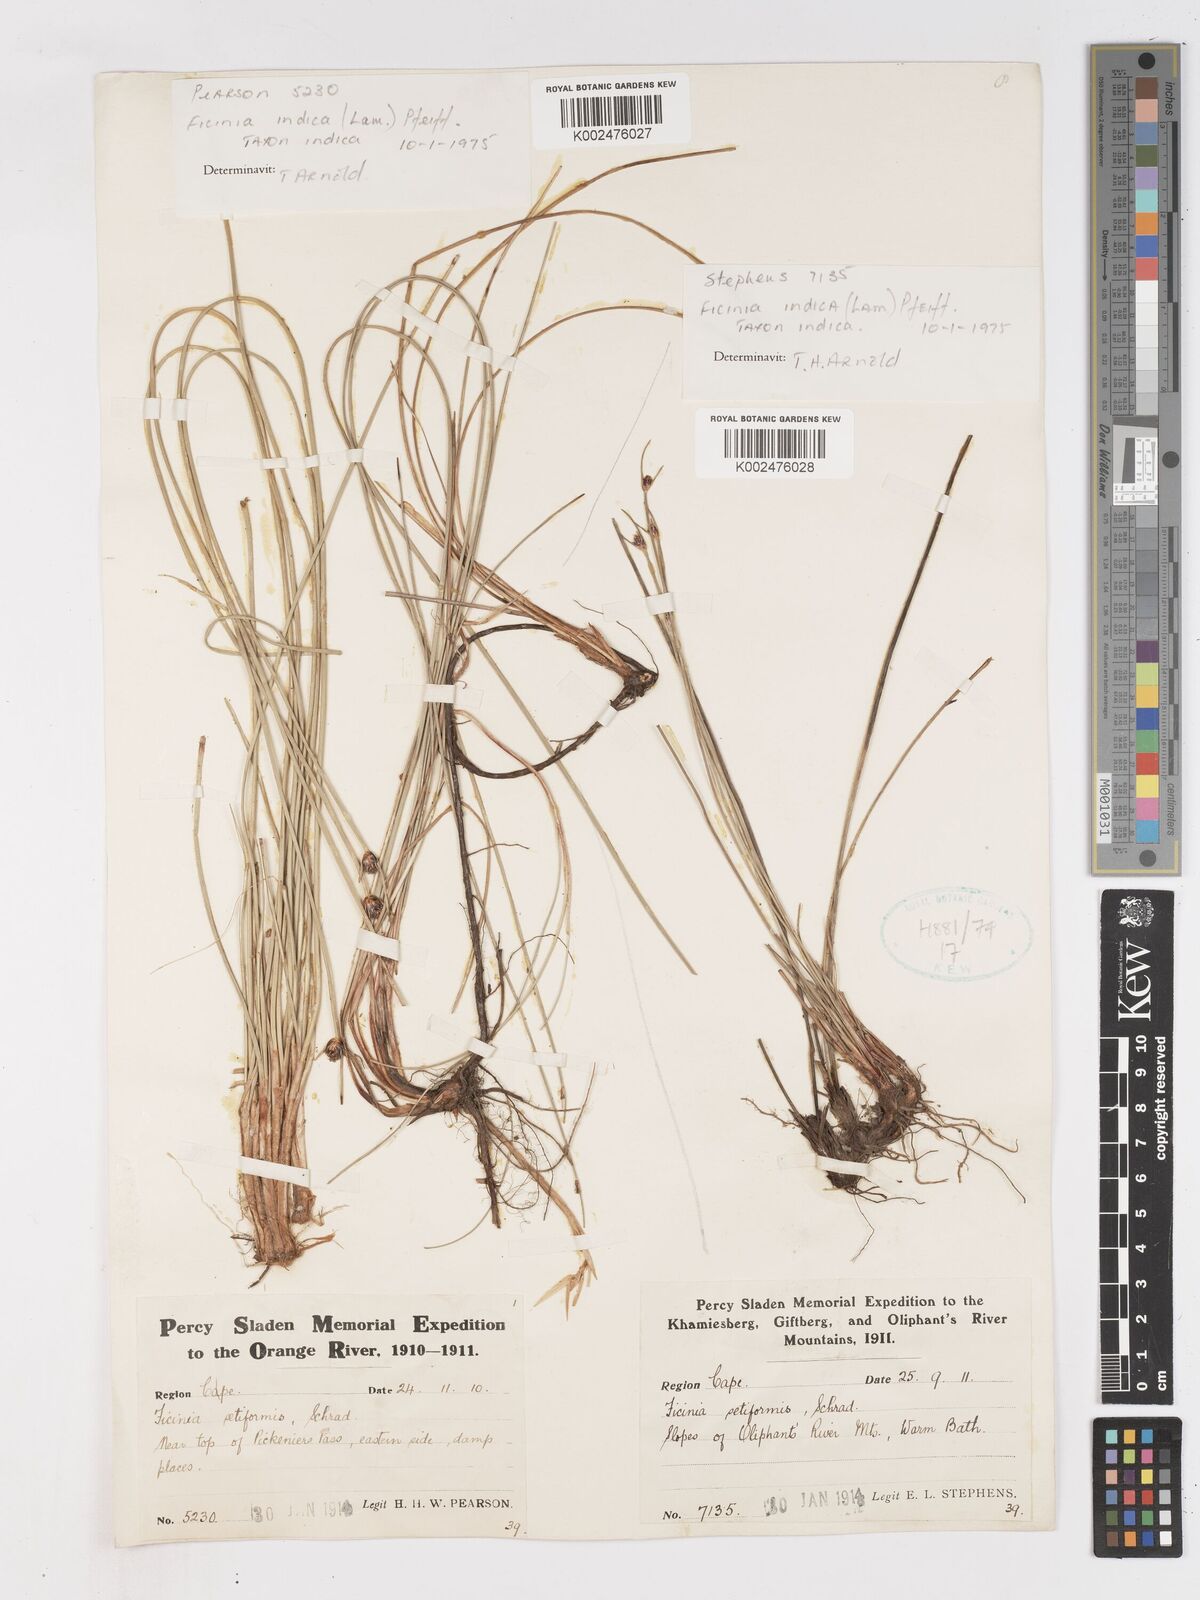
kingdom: Plantae
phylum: Tracheophyta
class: Liliopsida
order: Poales
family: Cyperaceae
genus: Ficinia
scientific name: Ficinia indica
